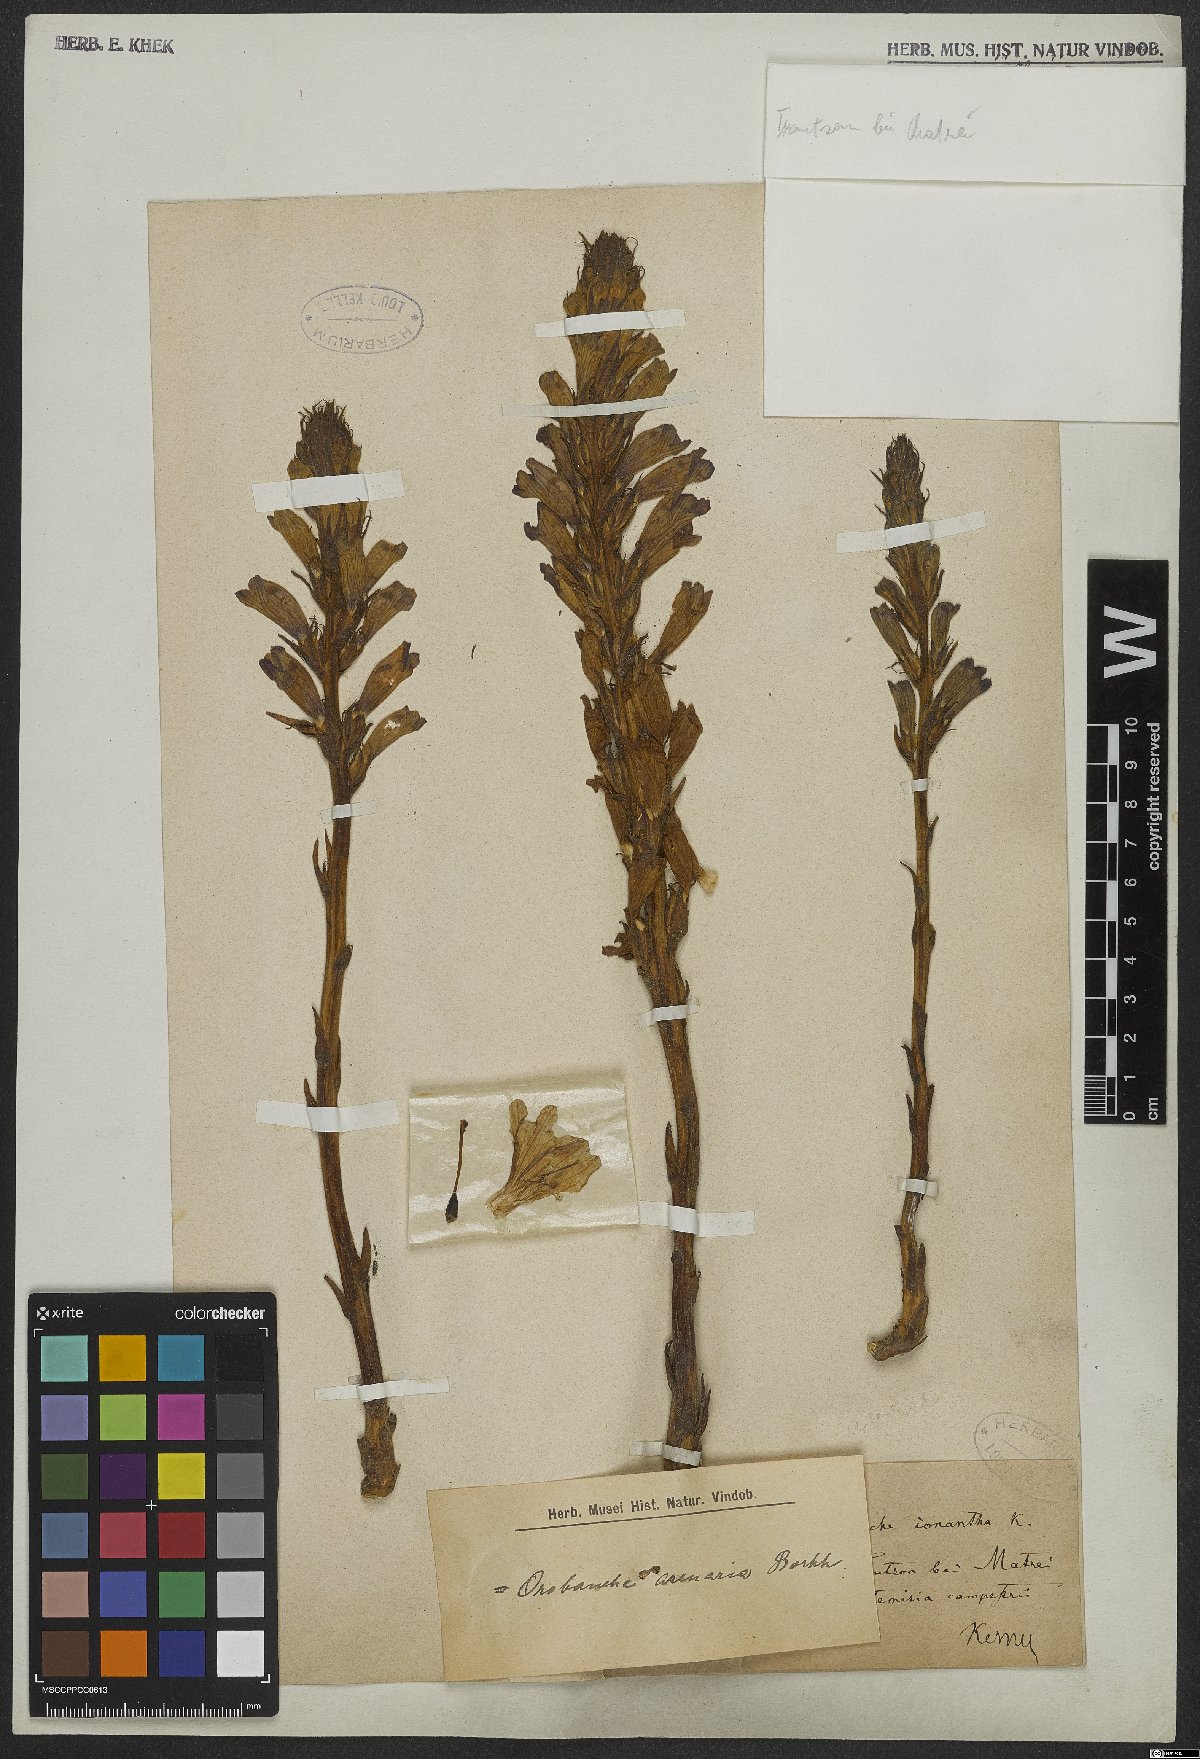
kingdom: Plantae
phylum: Tracheophyta
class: Magnoliopsida
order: Lamiales
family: Orobanchaceae
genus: Phelipanche
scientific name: Phelipanche arenaria
